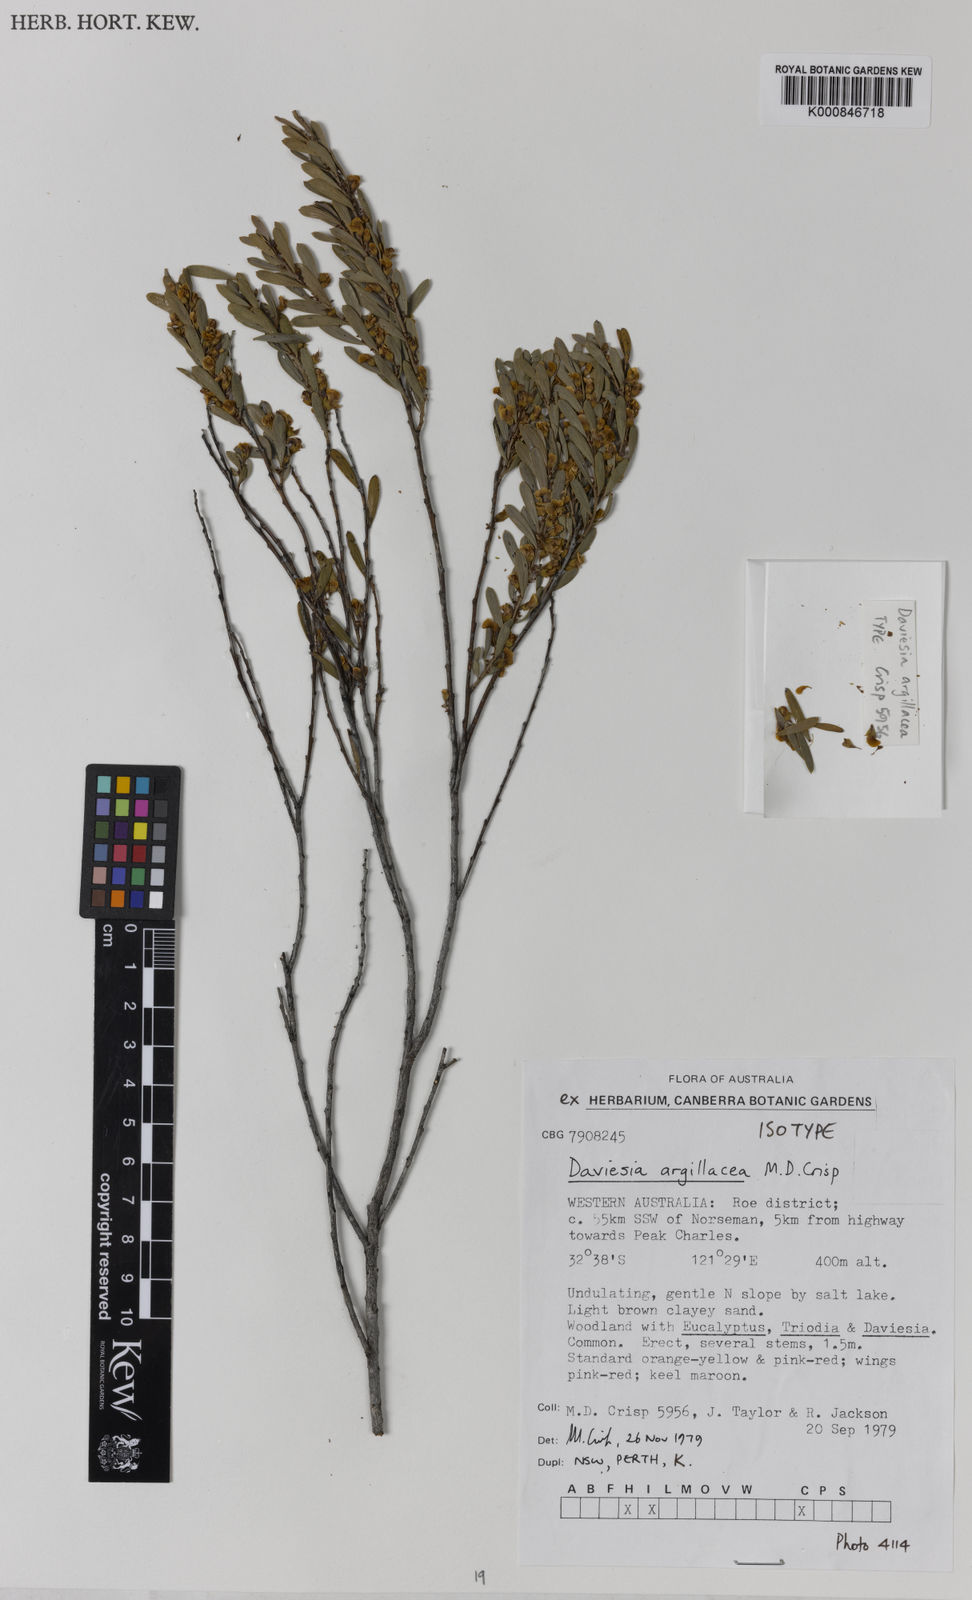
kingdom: Plantae
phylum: Tracheophyta
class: Magnoliopsida
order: Fabales
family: Fabaceae
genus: Daviesia
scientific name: Daviesia argillacea
